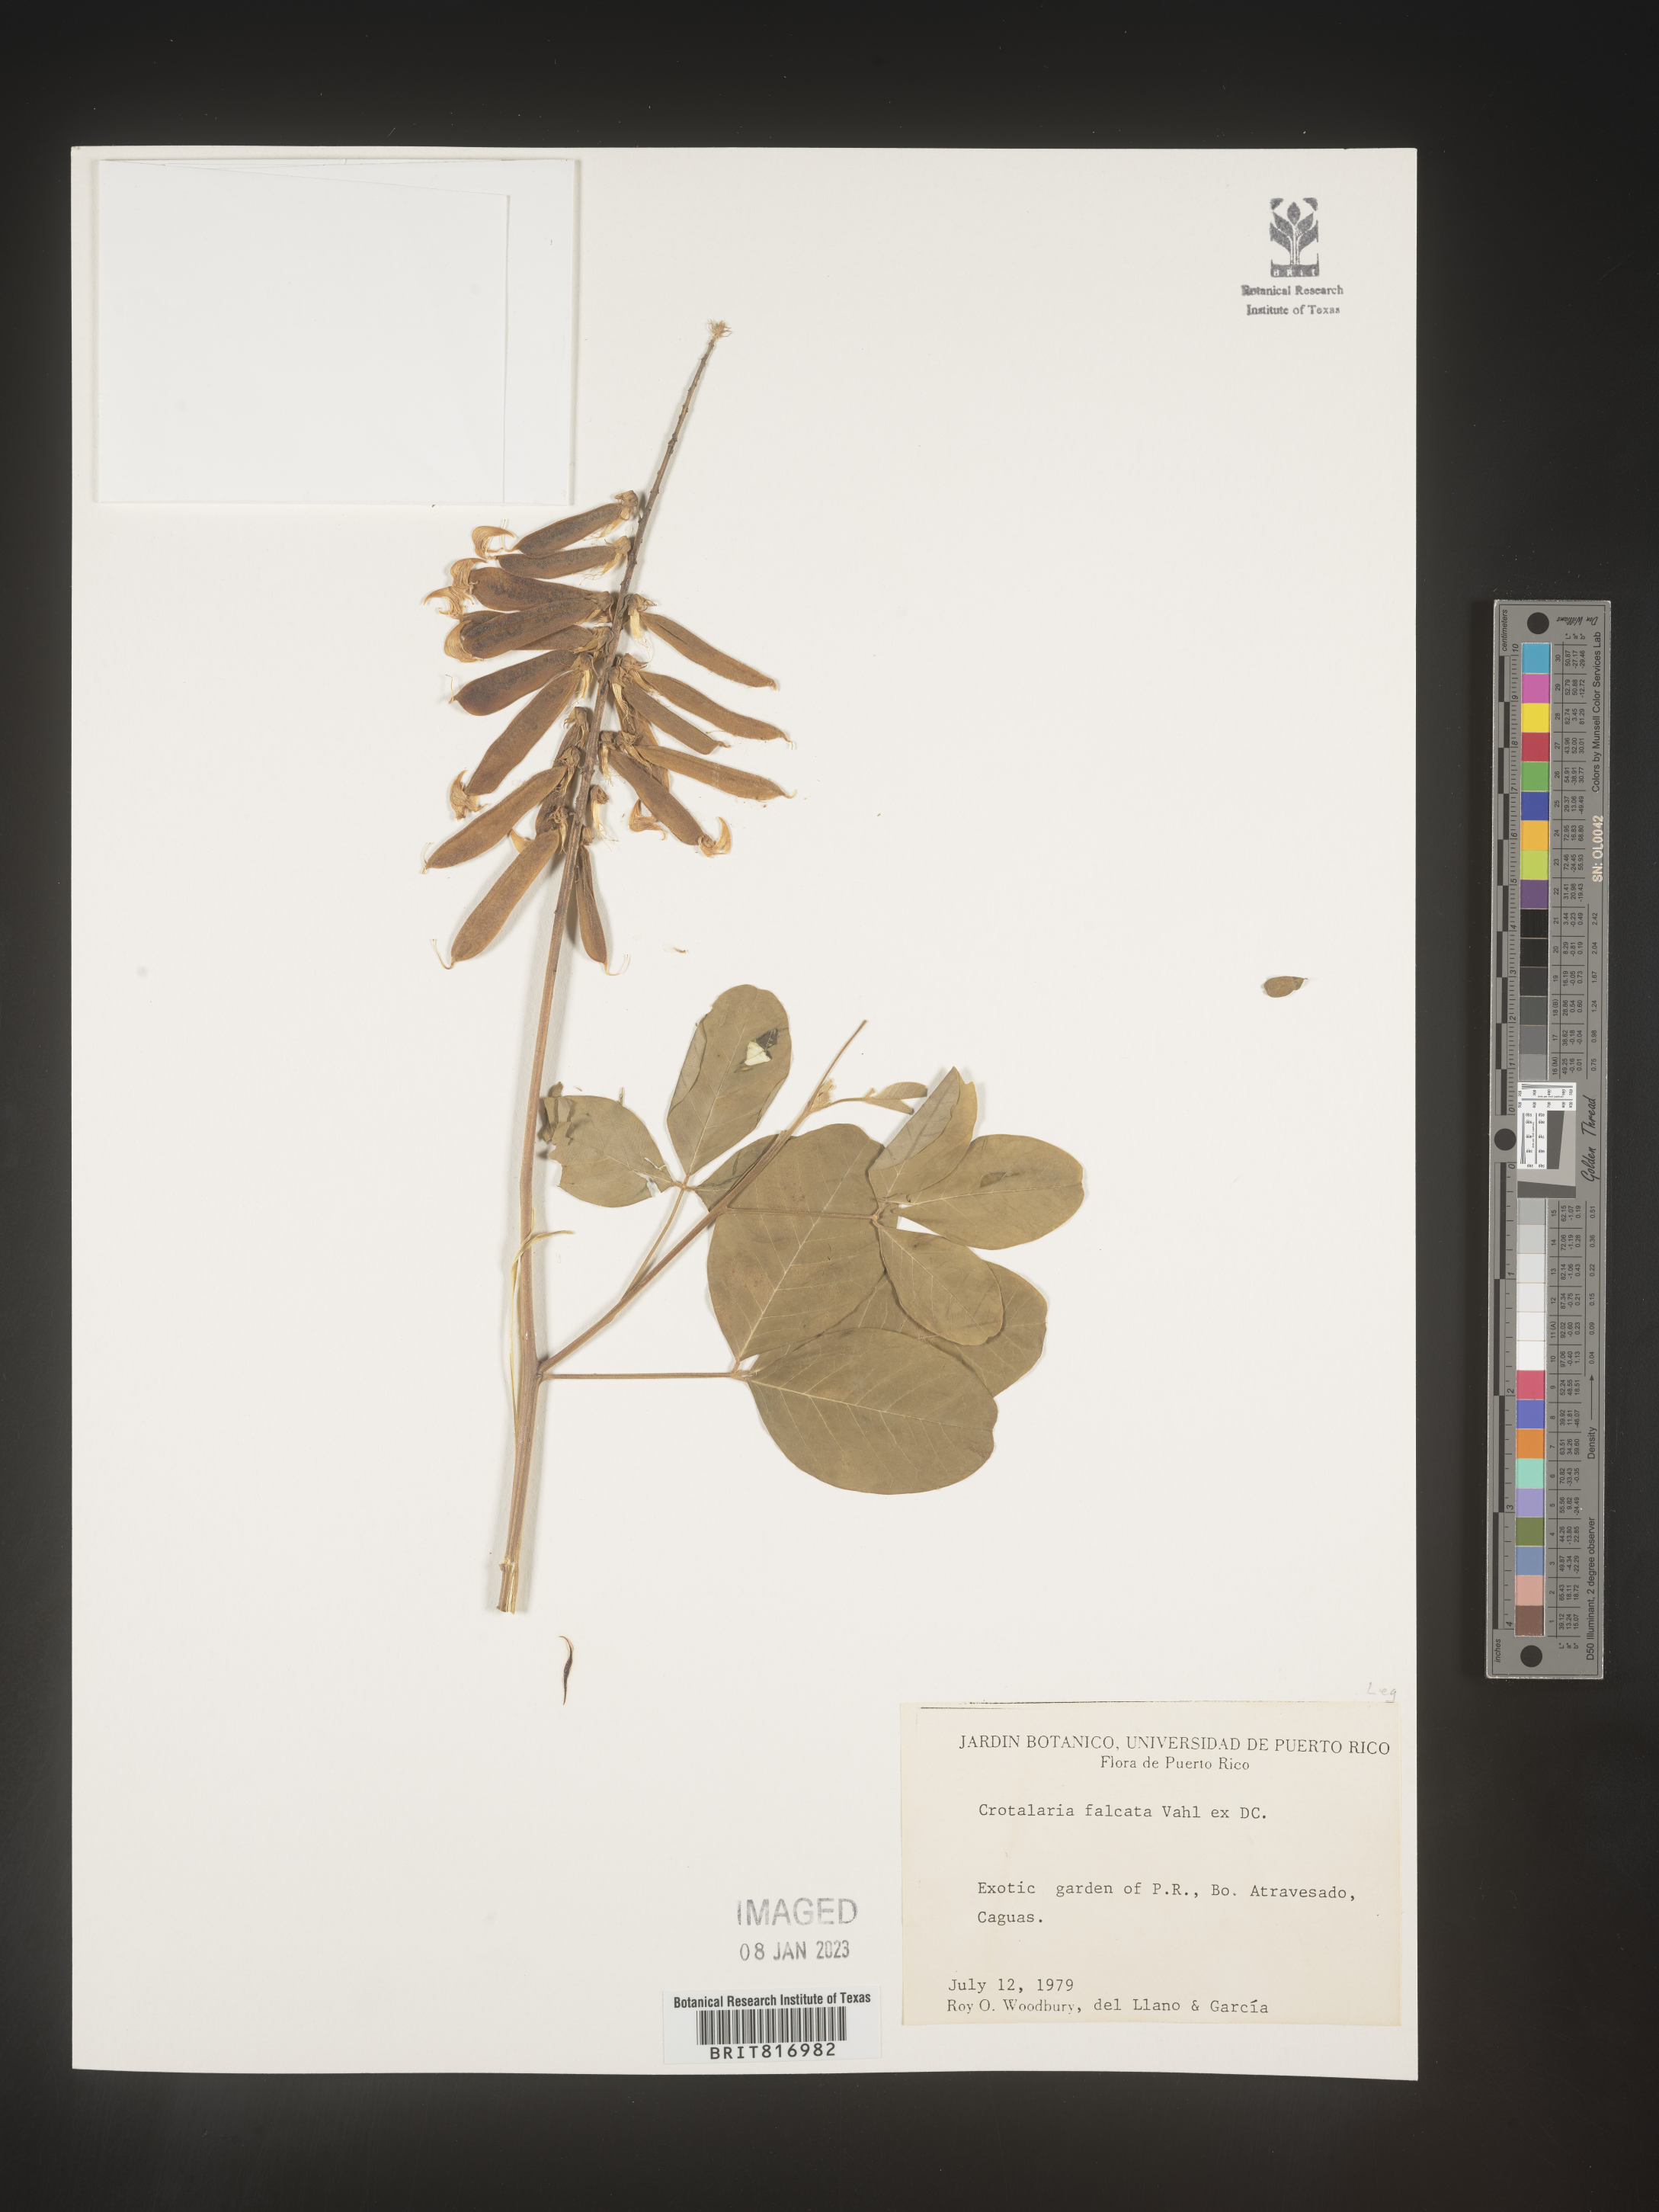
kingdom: Plantae
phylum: Tracheophyta
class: Magnoliopsida
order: Fabales
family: Fabaceae
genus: Crotalaria
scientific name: Crotalaria
